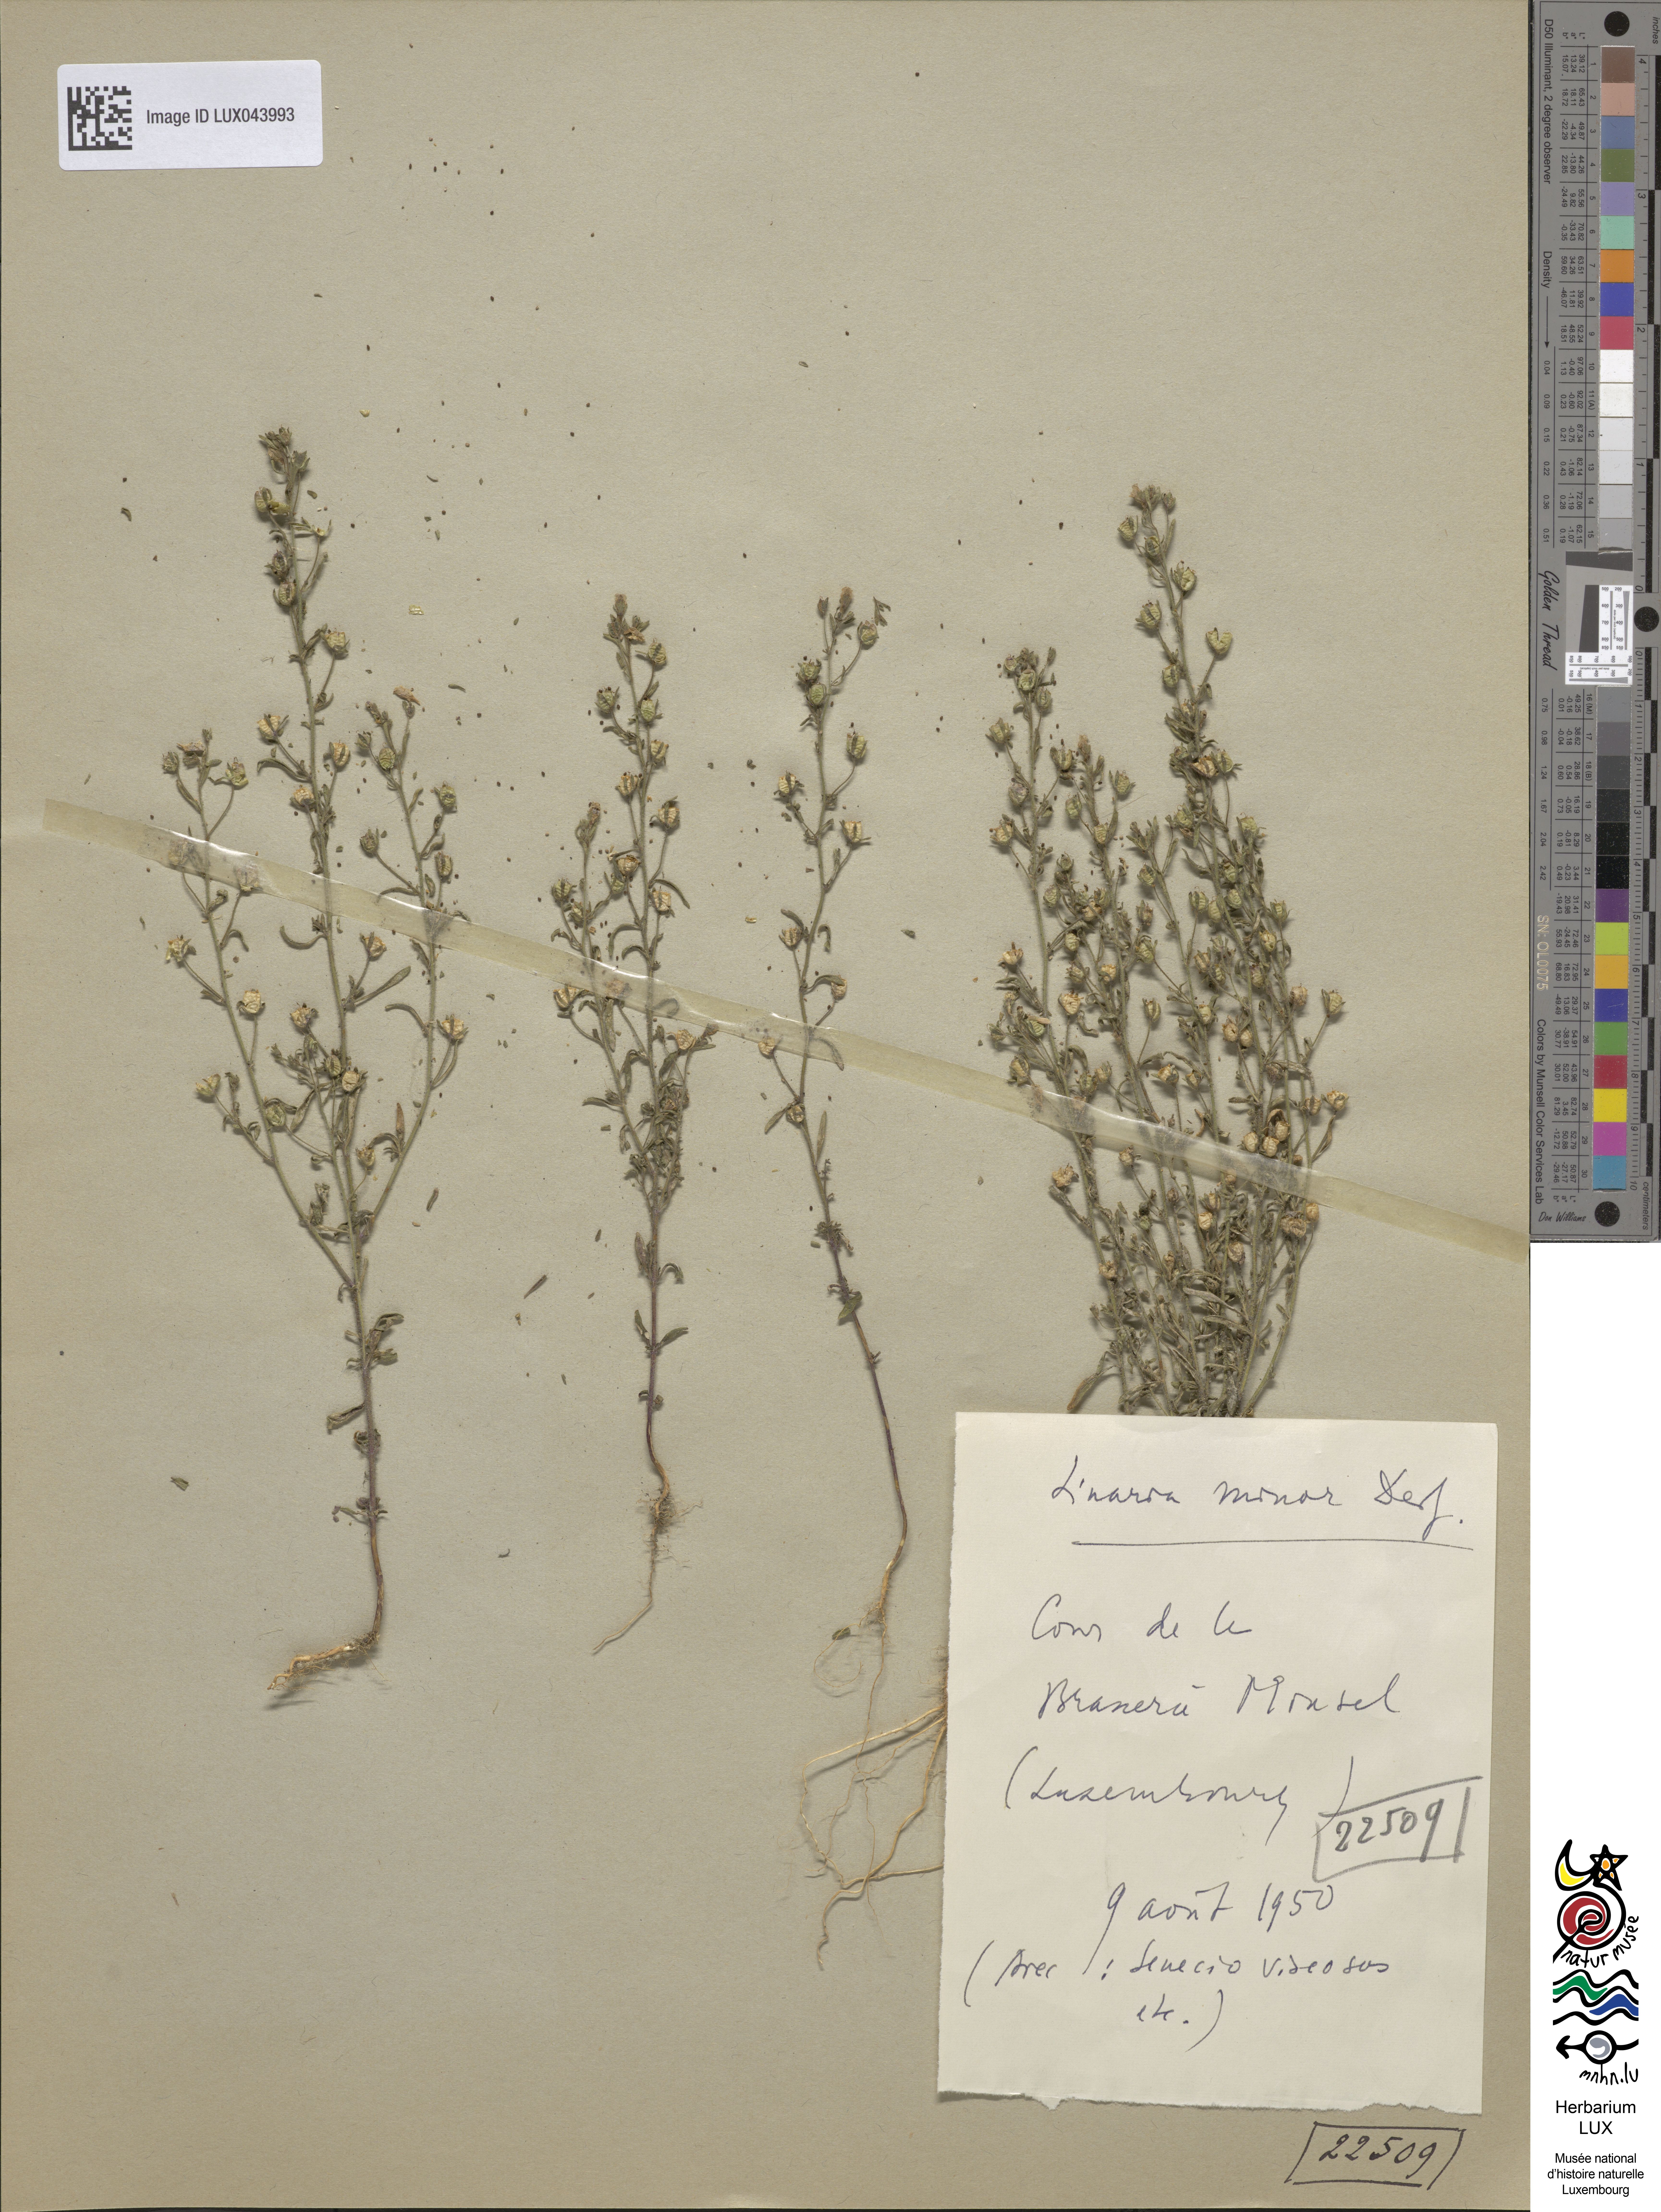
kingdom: Plantae
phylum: Tracheophyta
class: Magnoliopsida
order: Lamiales
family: Plantaginaceae
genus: Chaenorhinum
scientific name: Chaenorhinum minus
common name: Dwarf snapdragon
